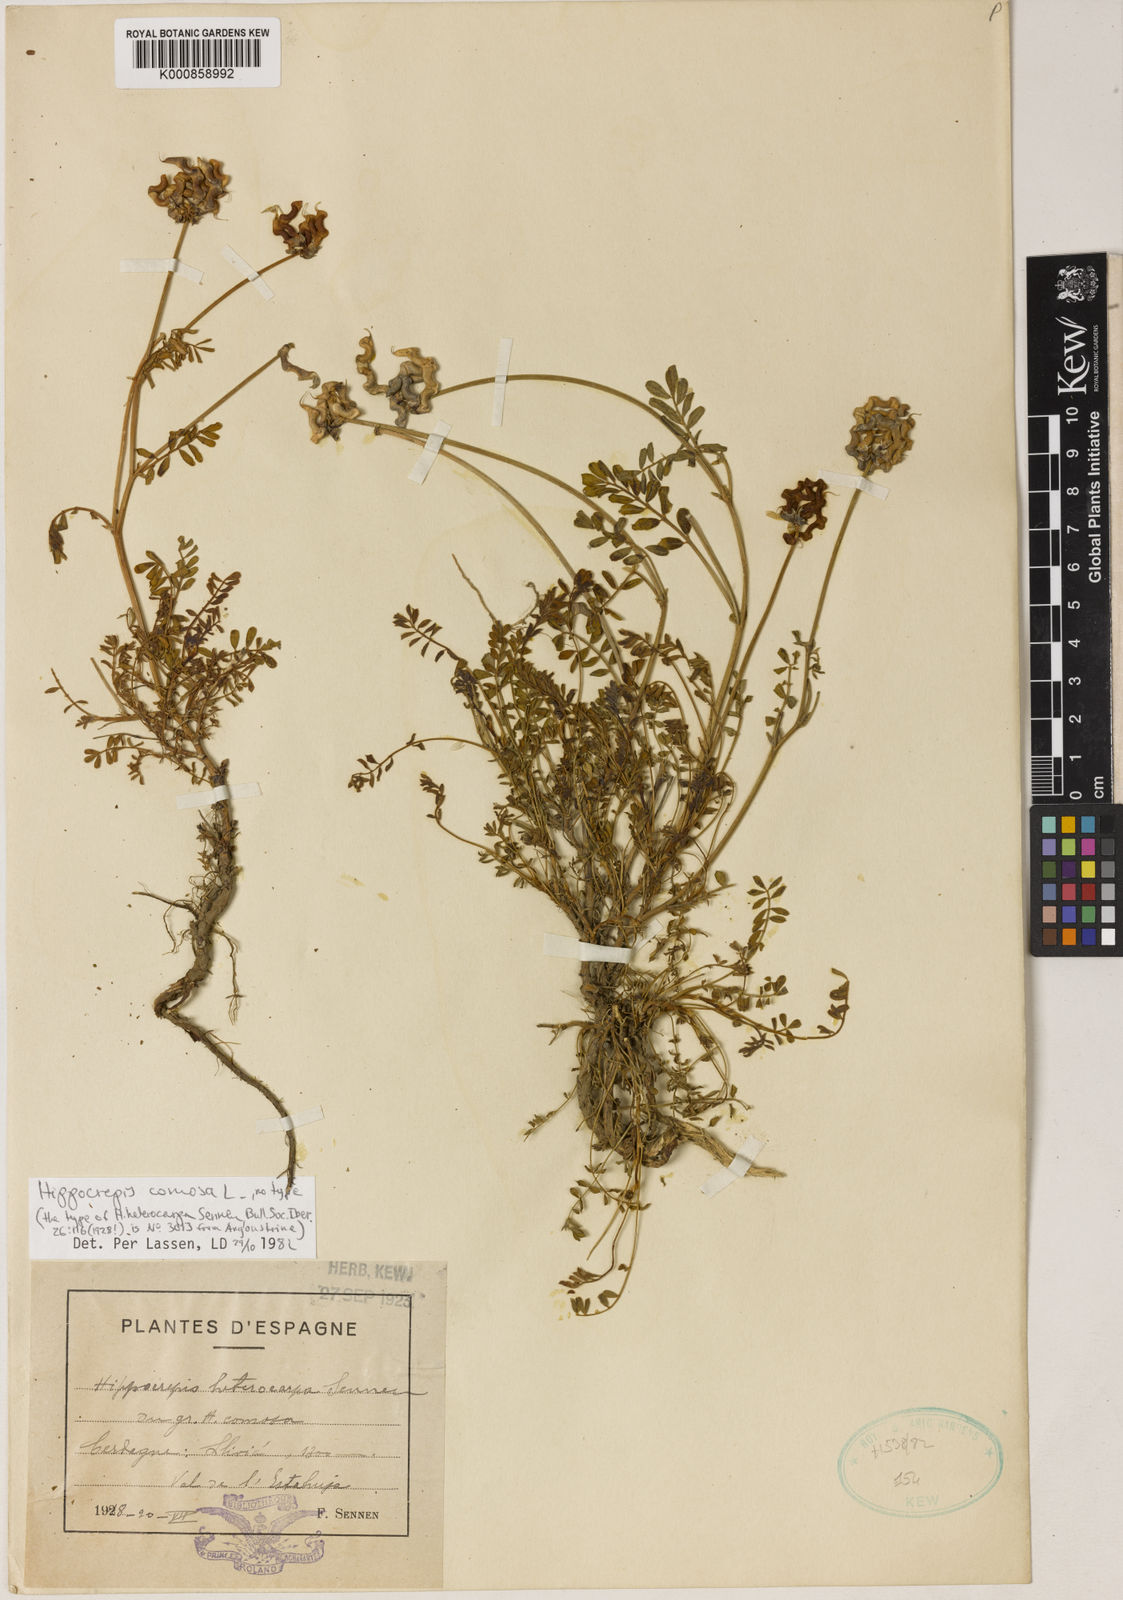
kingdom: Plantae
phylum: Tracheophyta
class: Magnoliopsida
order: Fabales
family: Fabaceae
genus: Hippocrepis
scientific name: Hippocrepis comosa
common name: Horseshoe vetch
